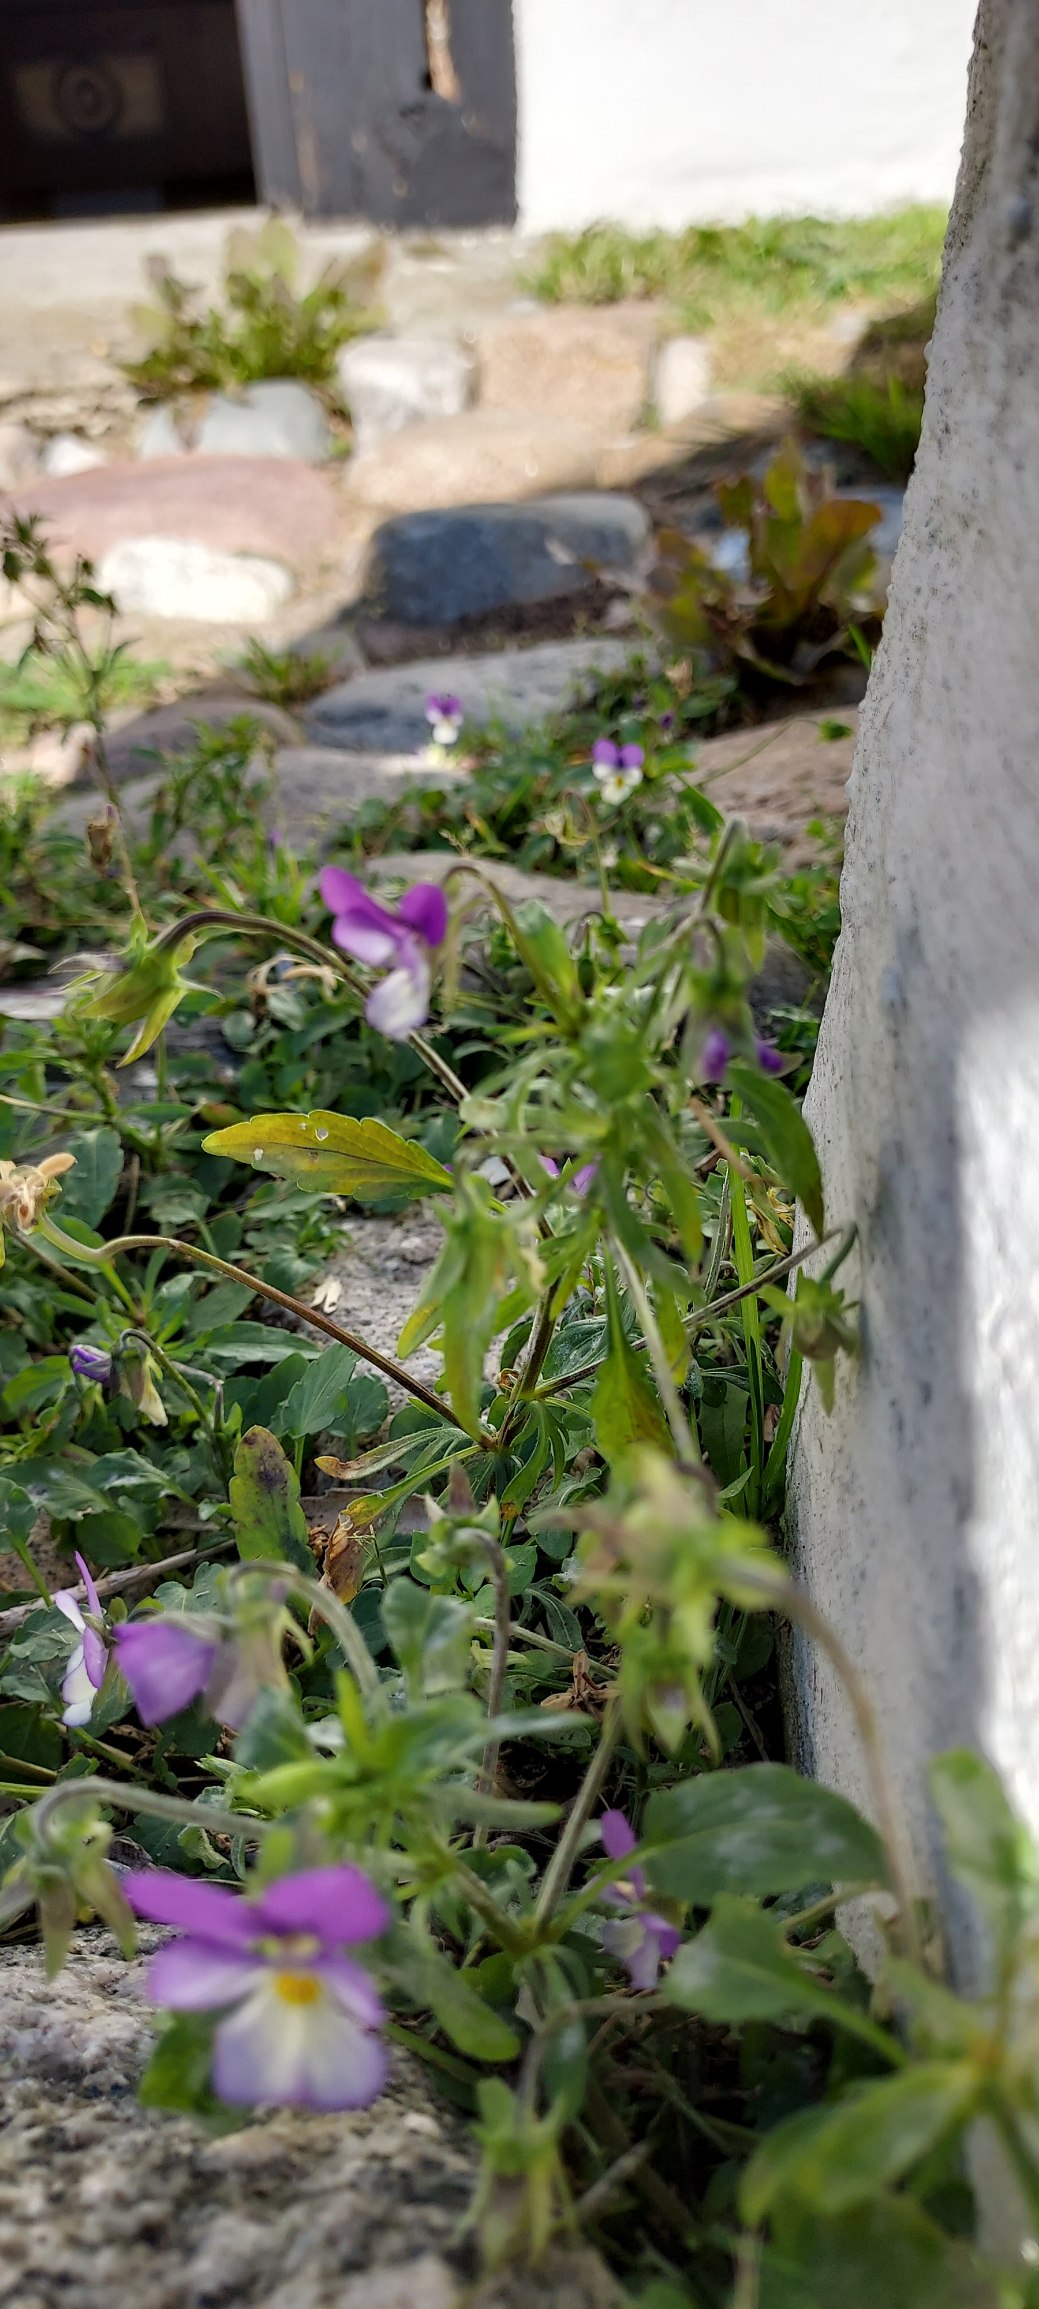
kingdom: Plantae
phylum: Tracheophyta
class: Magnoliopsida
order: Malpighiales
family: Violaceae
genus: Viola
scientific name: Viola tricolor
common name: Stedmoderblomst
